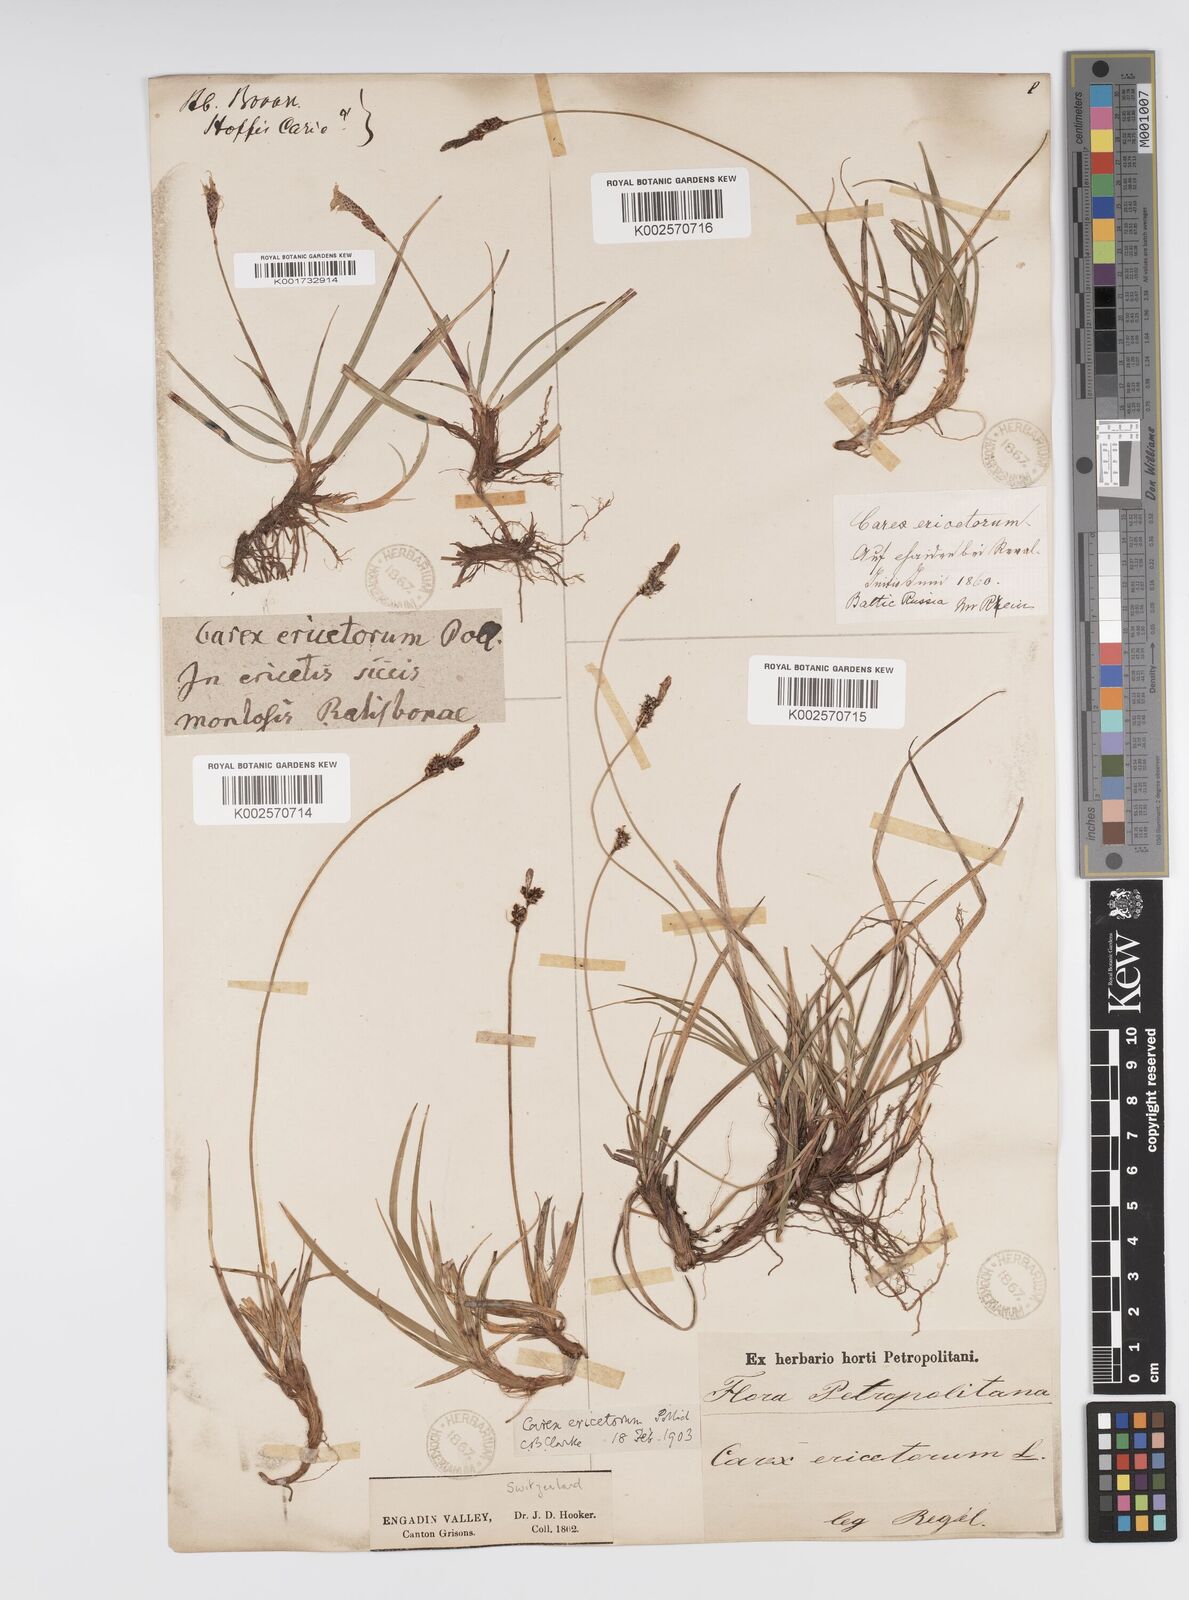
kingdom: Plantae
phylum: Tracheophyta
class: Liliopsida
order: Poales
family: Cyperaceae
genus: Carex
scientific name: Carex ericetorum
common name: Rare spring-sedge
